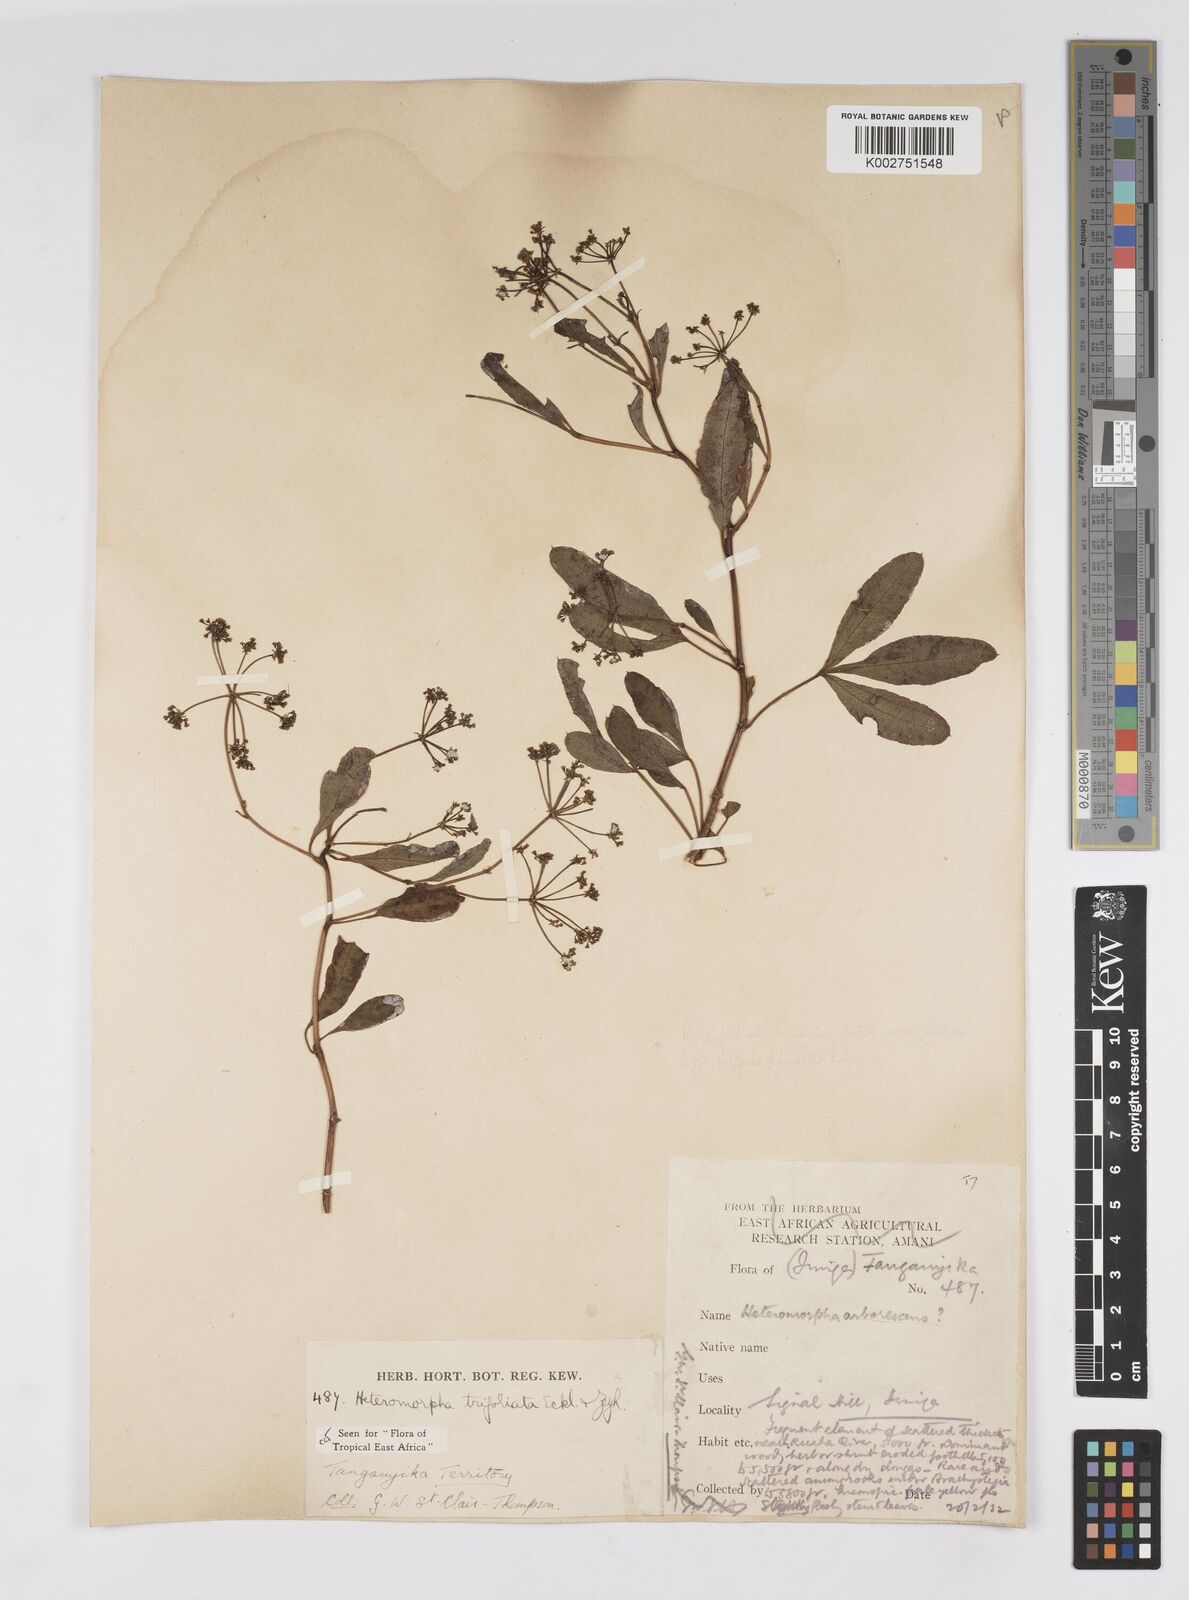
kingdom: Plantae
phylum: Tracheophyta
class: Magnoliopsida
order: Apiales
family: Apiaceae
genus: Heteromorpha
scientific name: Heteromorpha arborescens
